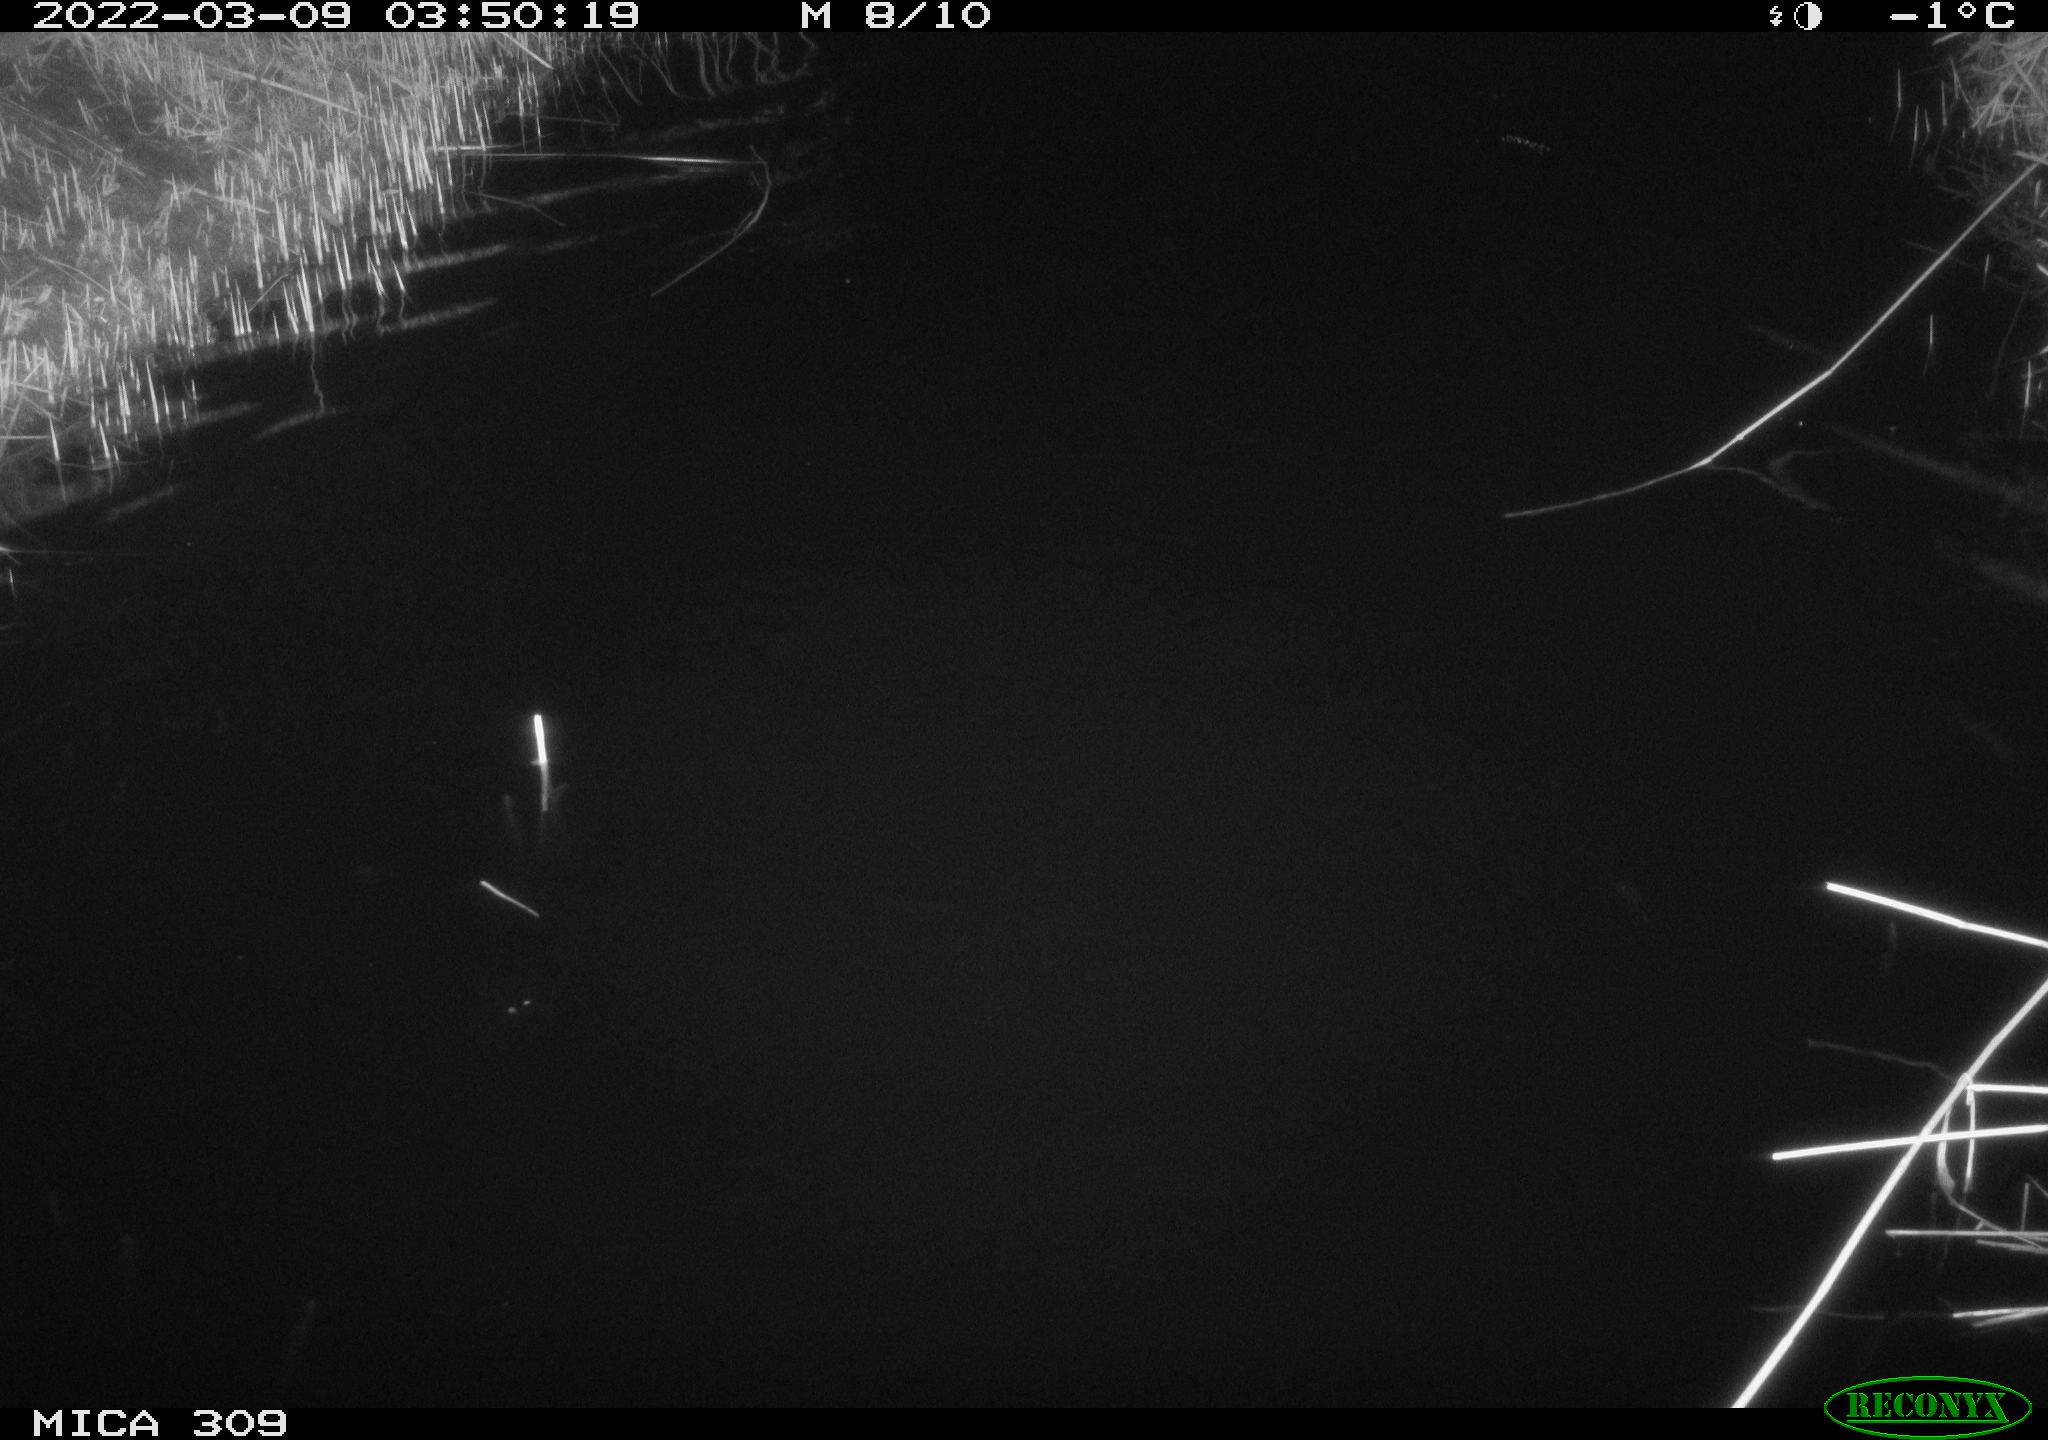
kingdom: Animalia
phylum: Chordata
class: Mammalia
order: Rodentia
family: Cricetidae
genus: Ondatra
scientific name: Ondatra zibethicus
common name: Muskrat
